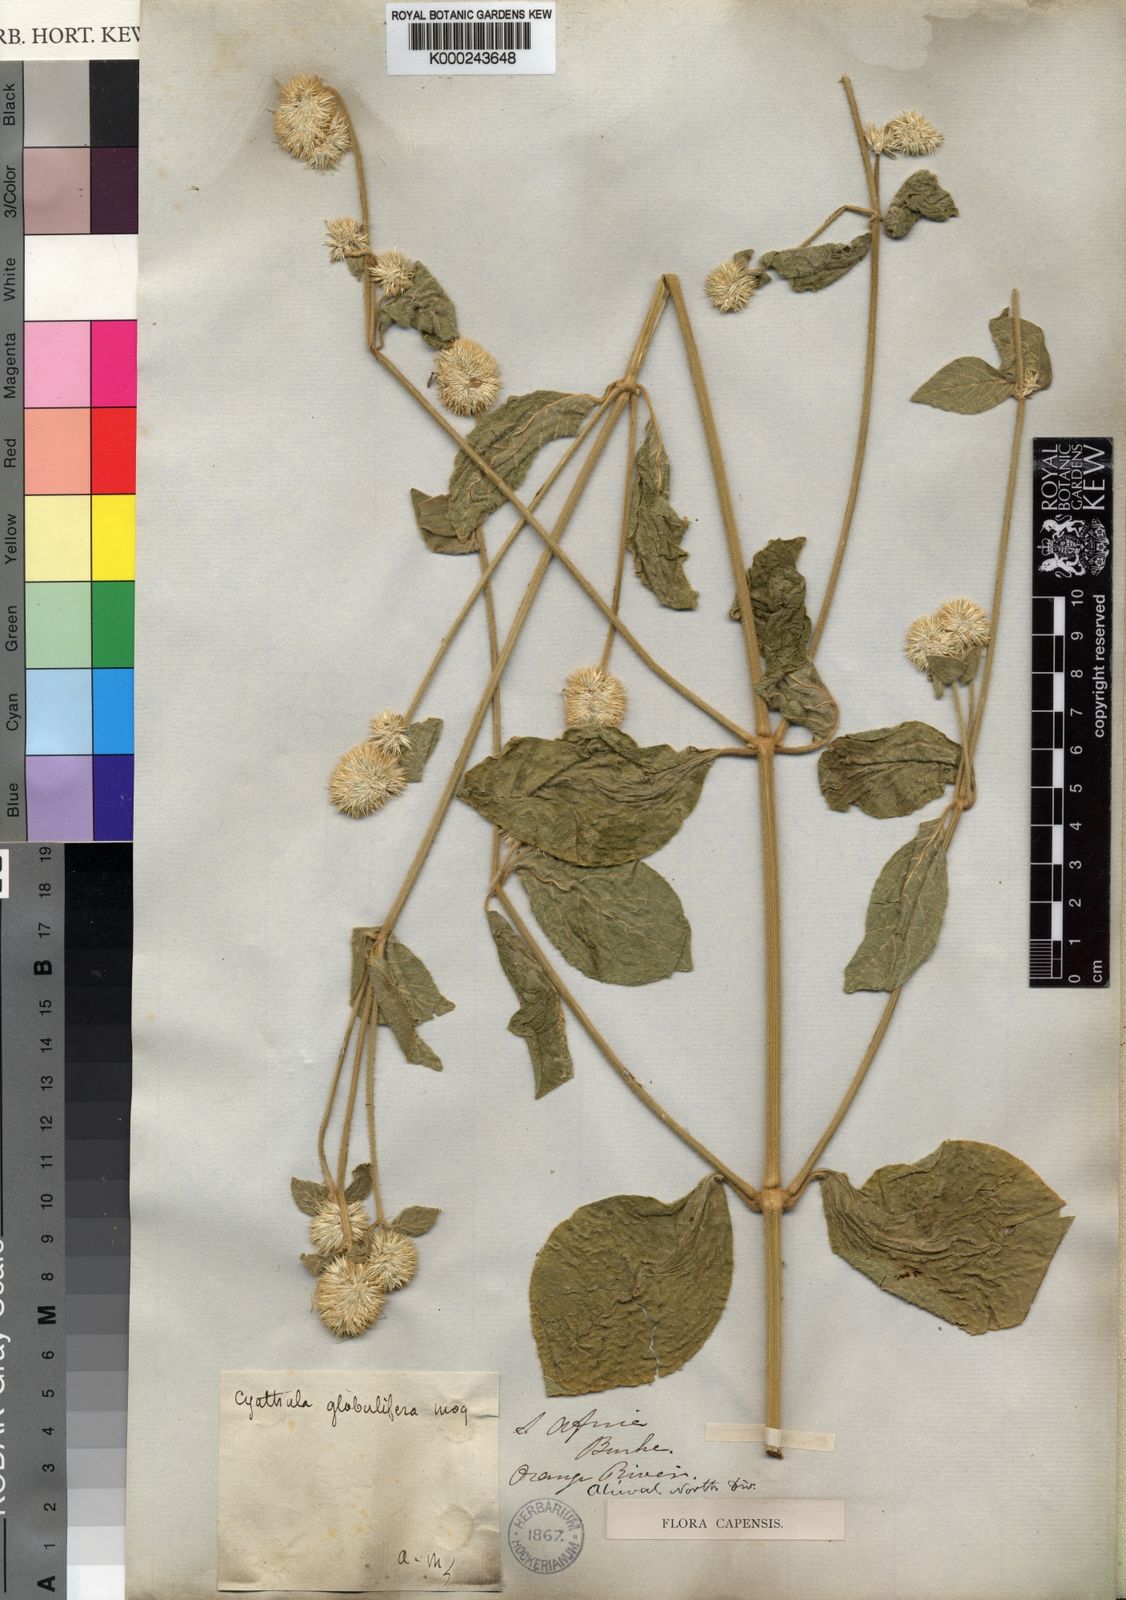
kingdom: Plantae
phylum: Tracheophyta
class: Magnoliopsida
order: Caryophyllales
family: Amaranthaceae
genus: Cyathula
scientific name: Cyathula uncinulata
